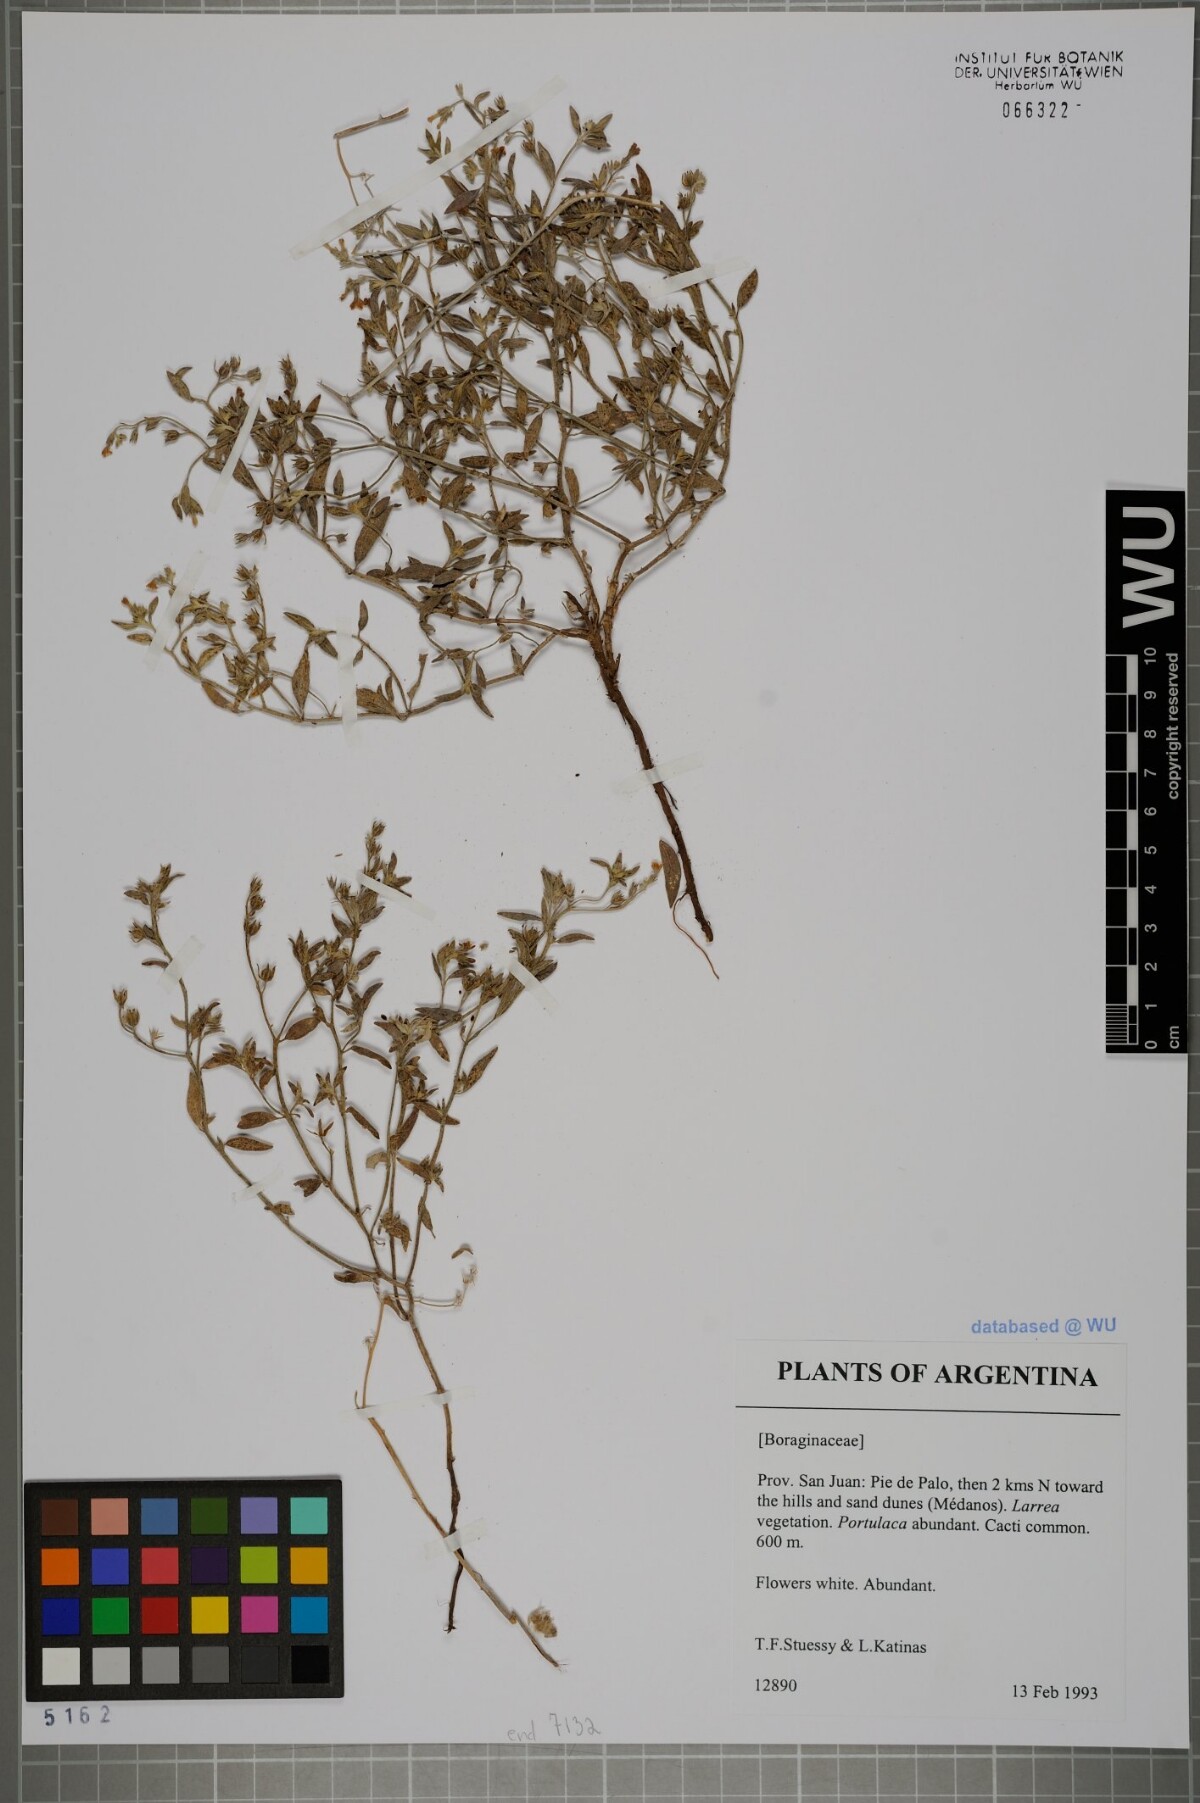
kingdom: Plantae
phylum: Tracheophyta
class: Magnoliopsida
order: Boraginales
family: Boraginaceae
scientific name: Boraginaceae
